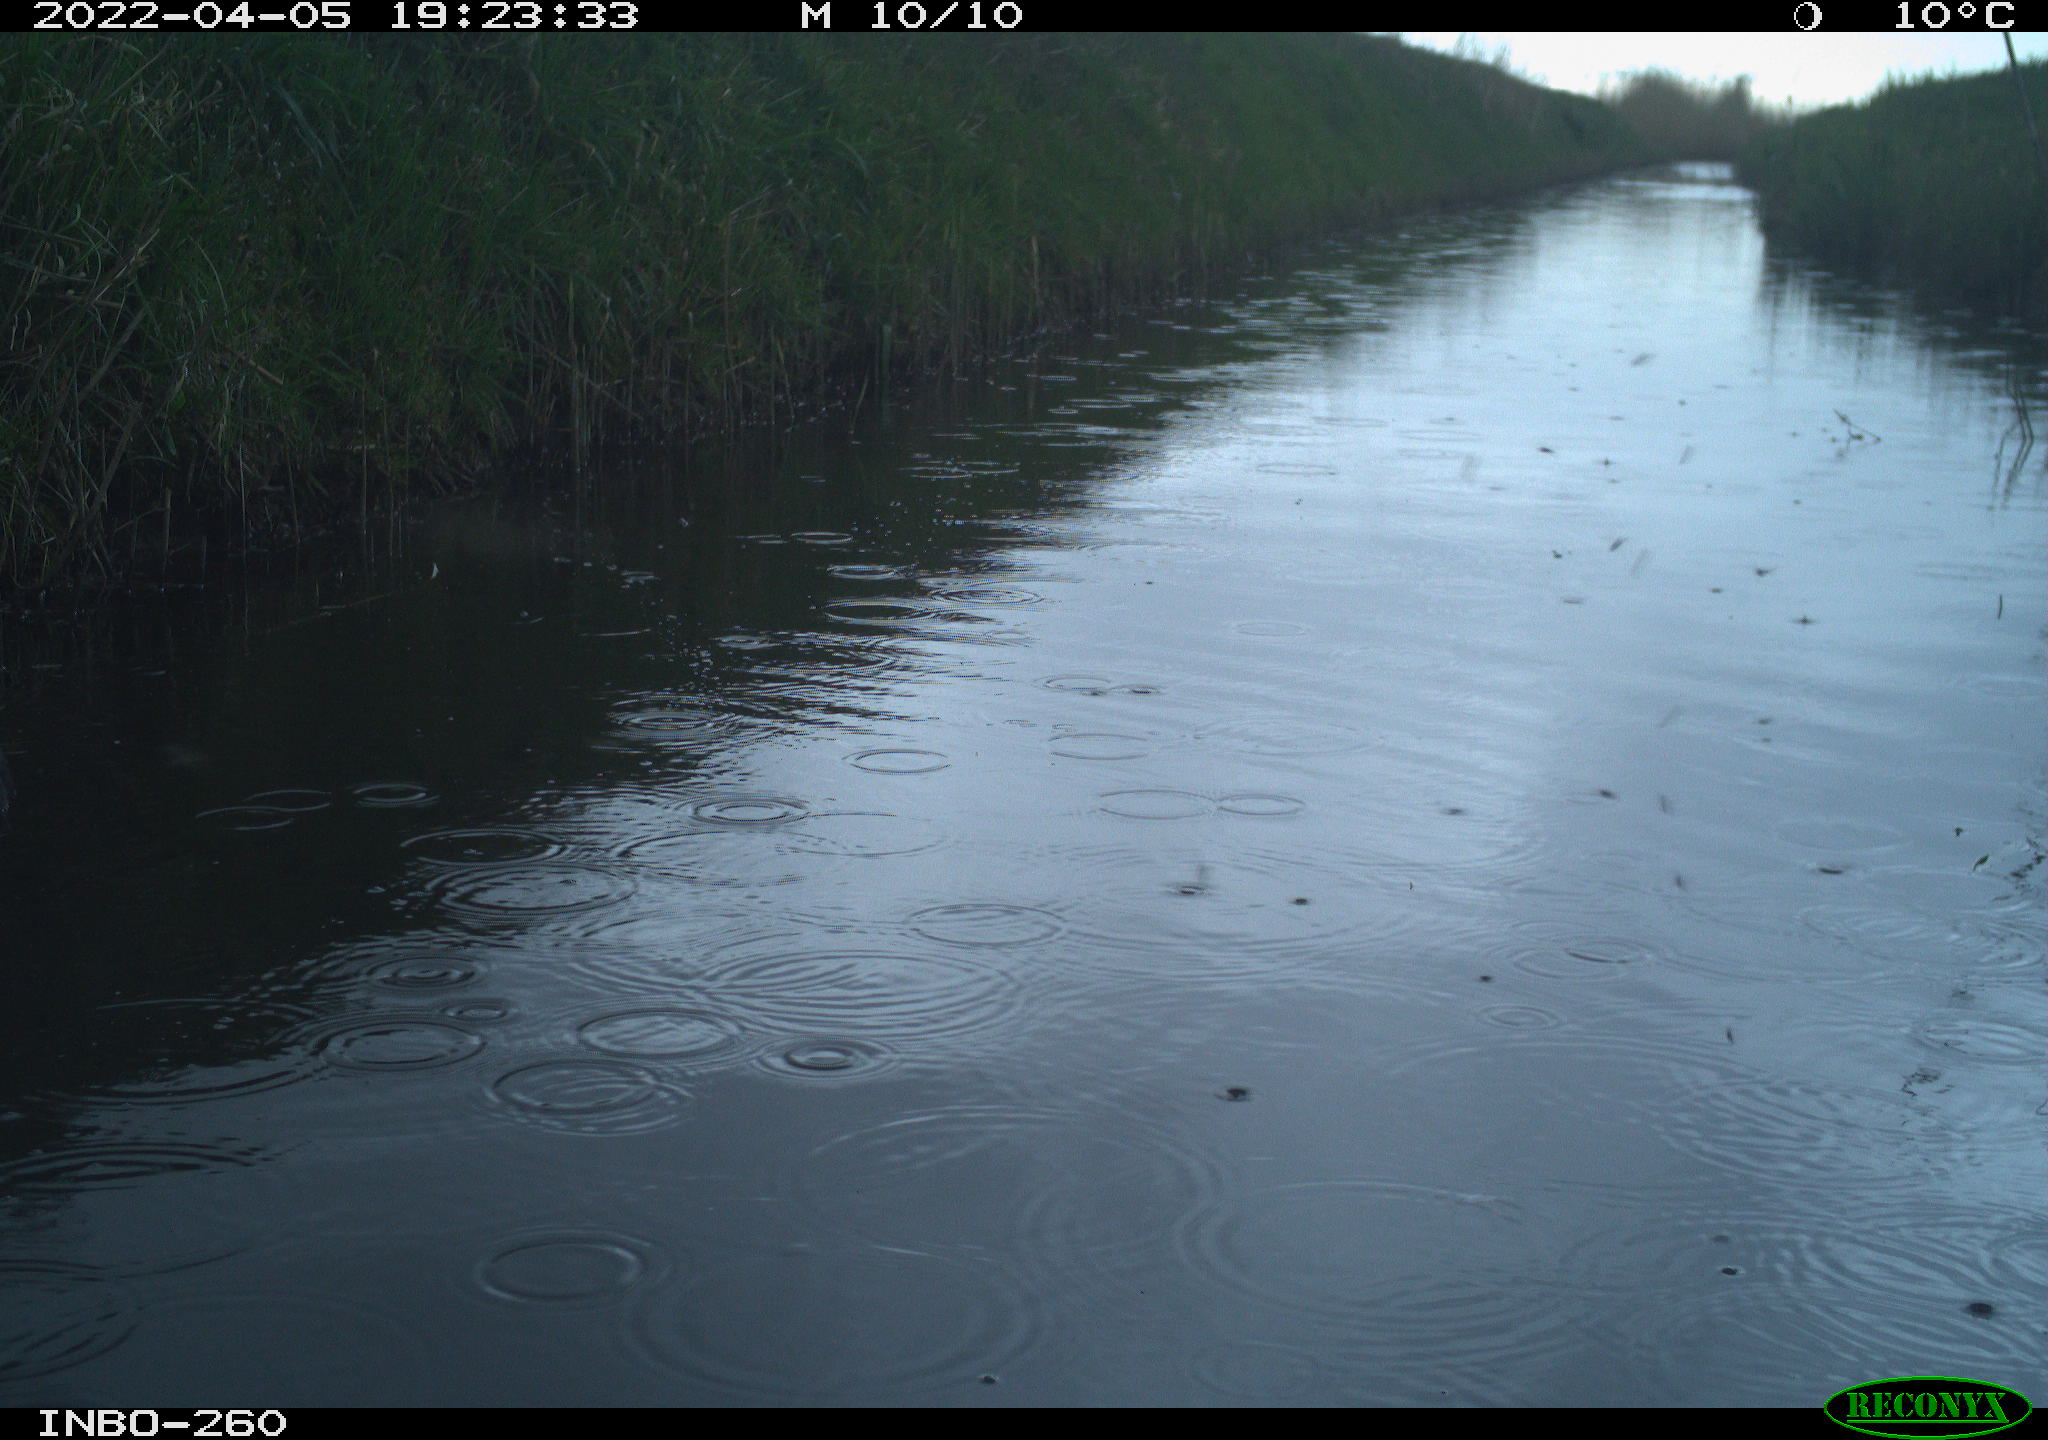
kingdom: Animalia
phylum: Chordata
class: Aves
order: Gruiformes
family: Rallidae
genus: Fulica
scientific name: Fulica atra
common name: Eurasian coot
